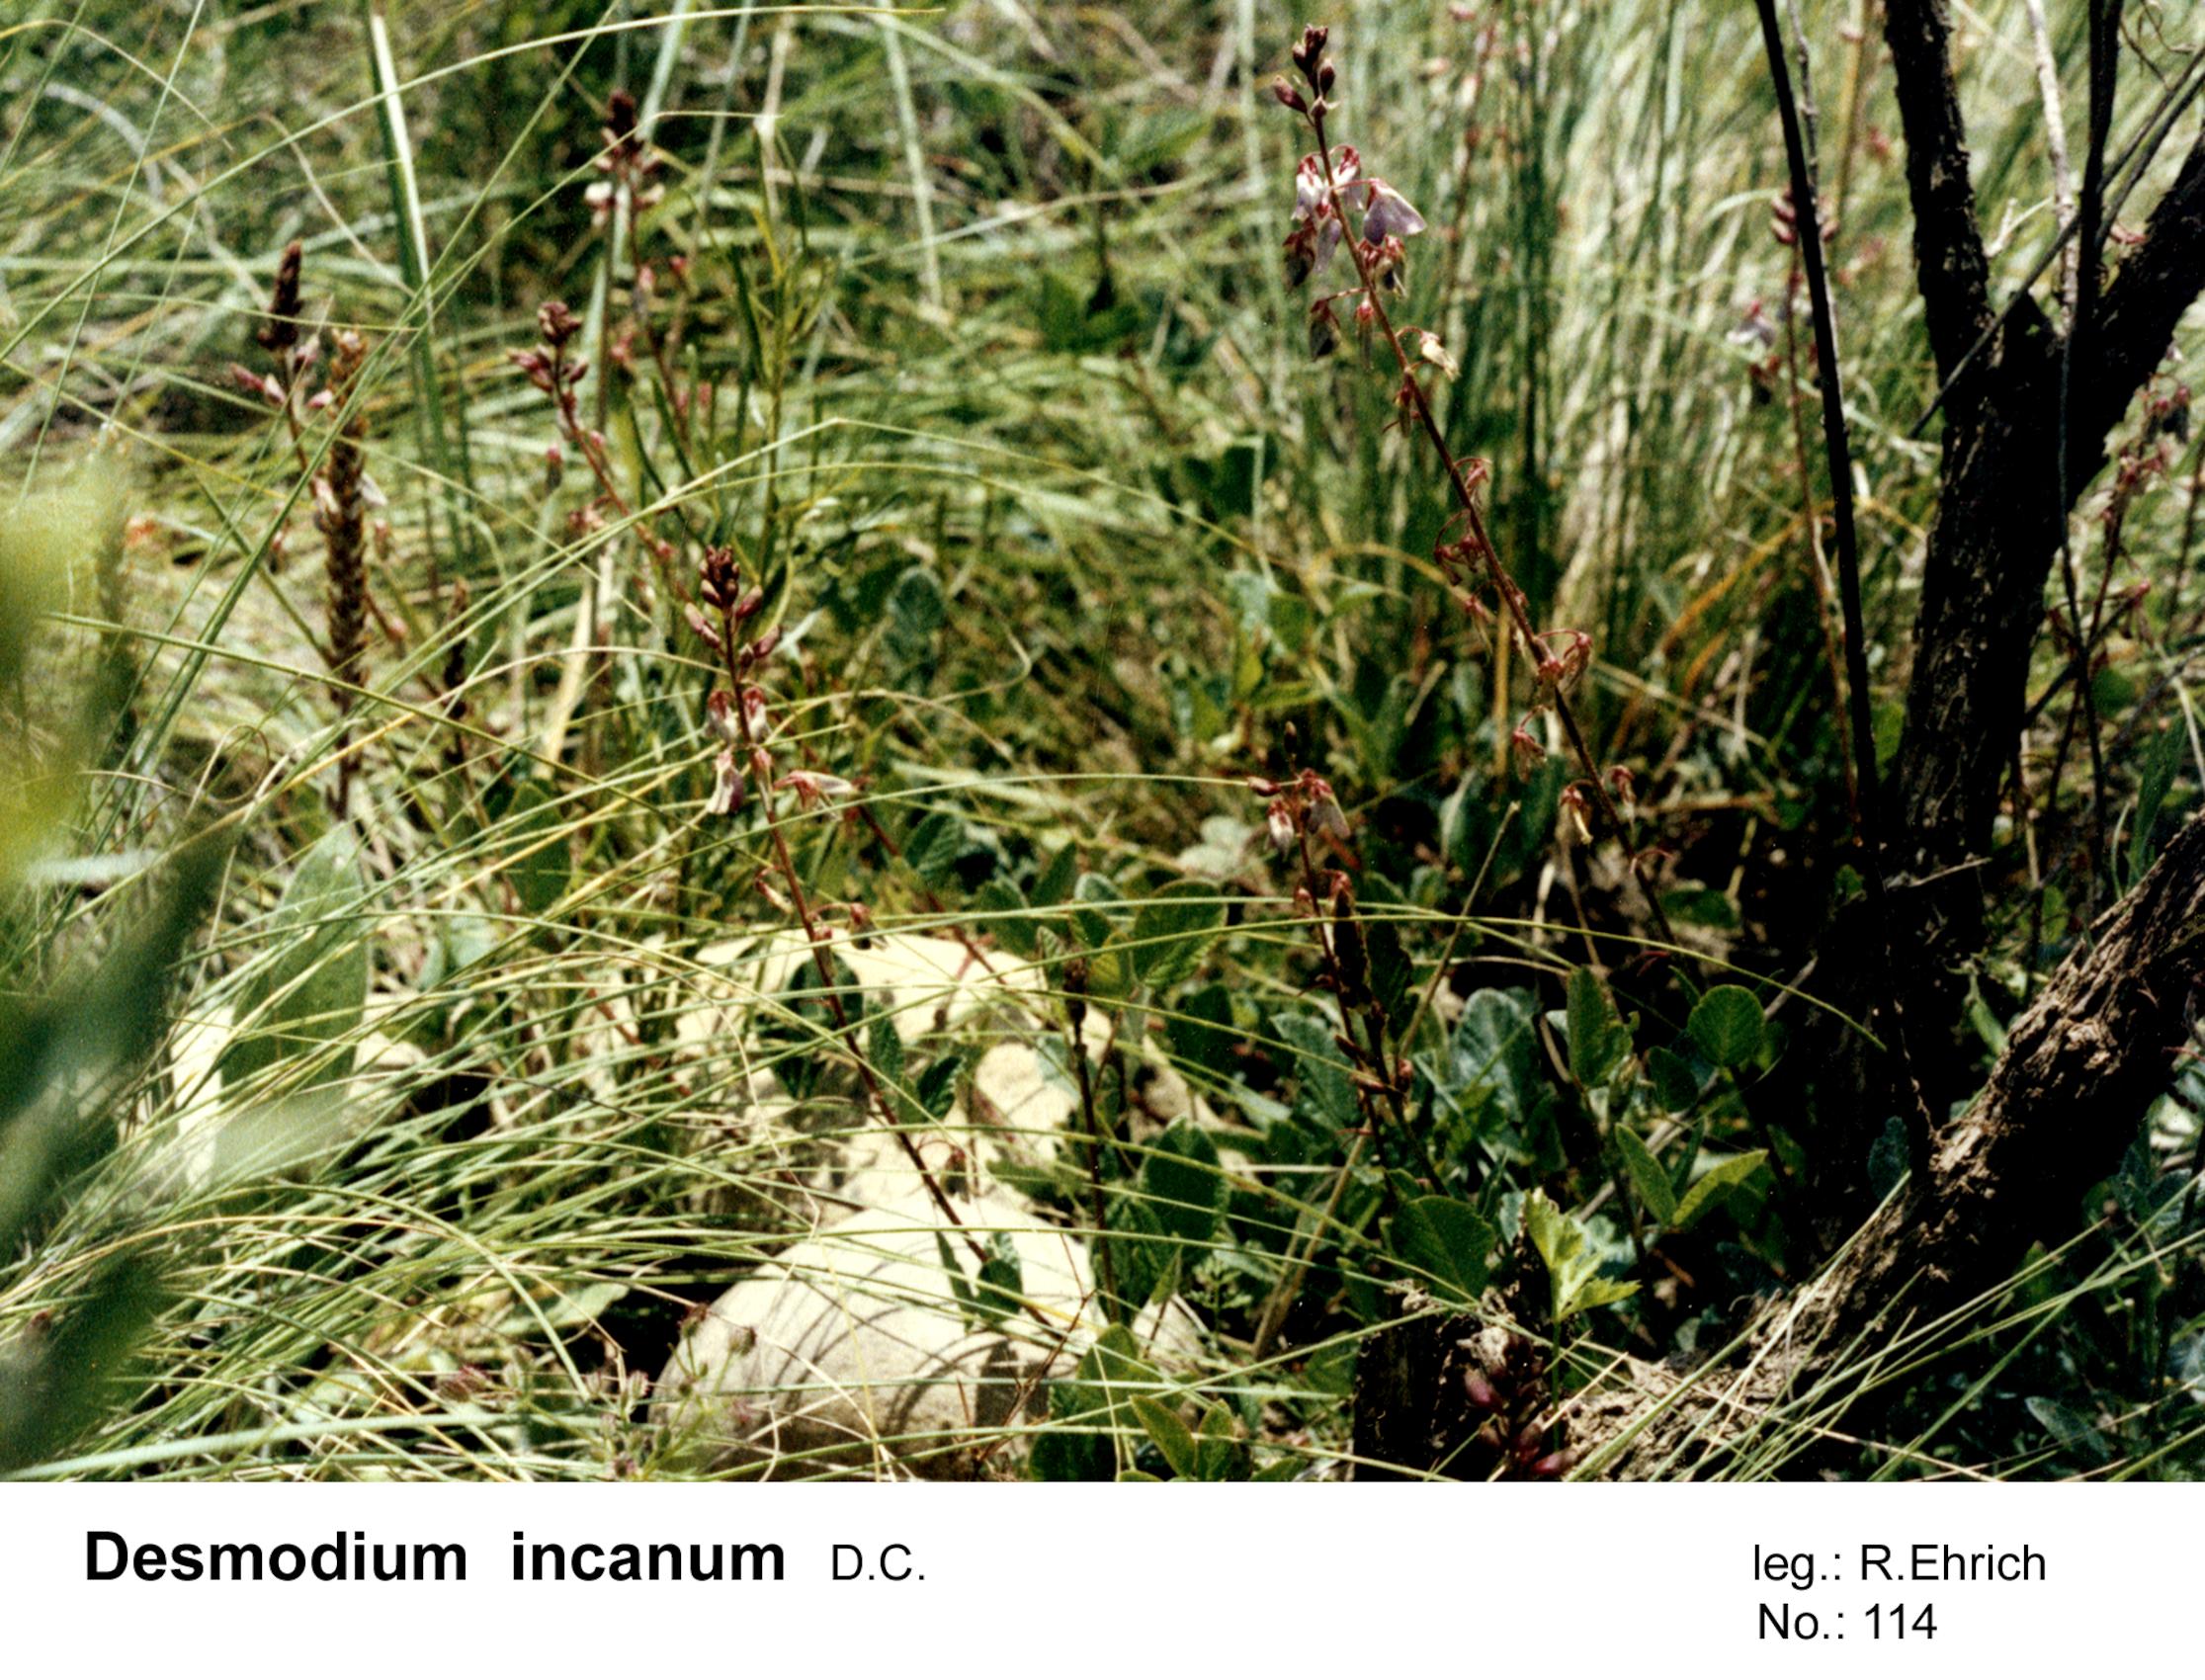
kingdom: Plantae
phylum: Tracheophyta
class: Magnoliopsida
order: Fabales
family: Fabaceae
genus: Desmodium
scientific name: Desmodium incanum
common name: Tickclover
